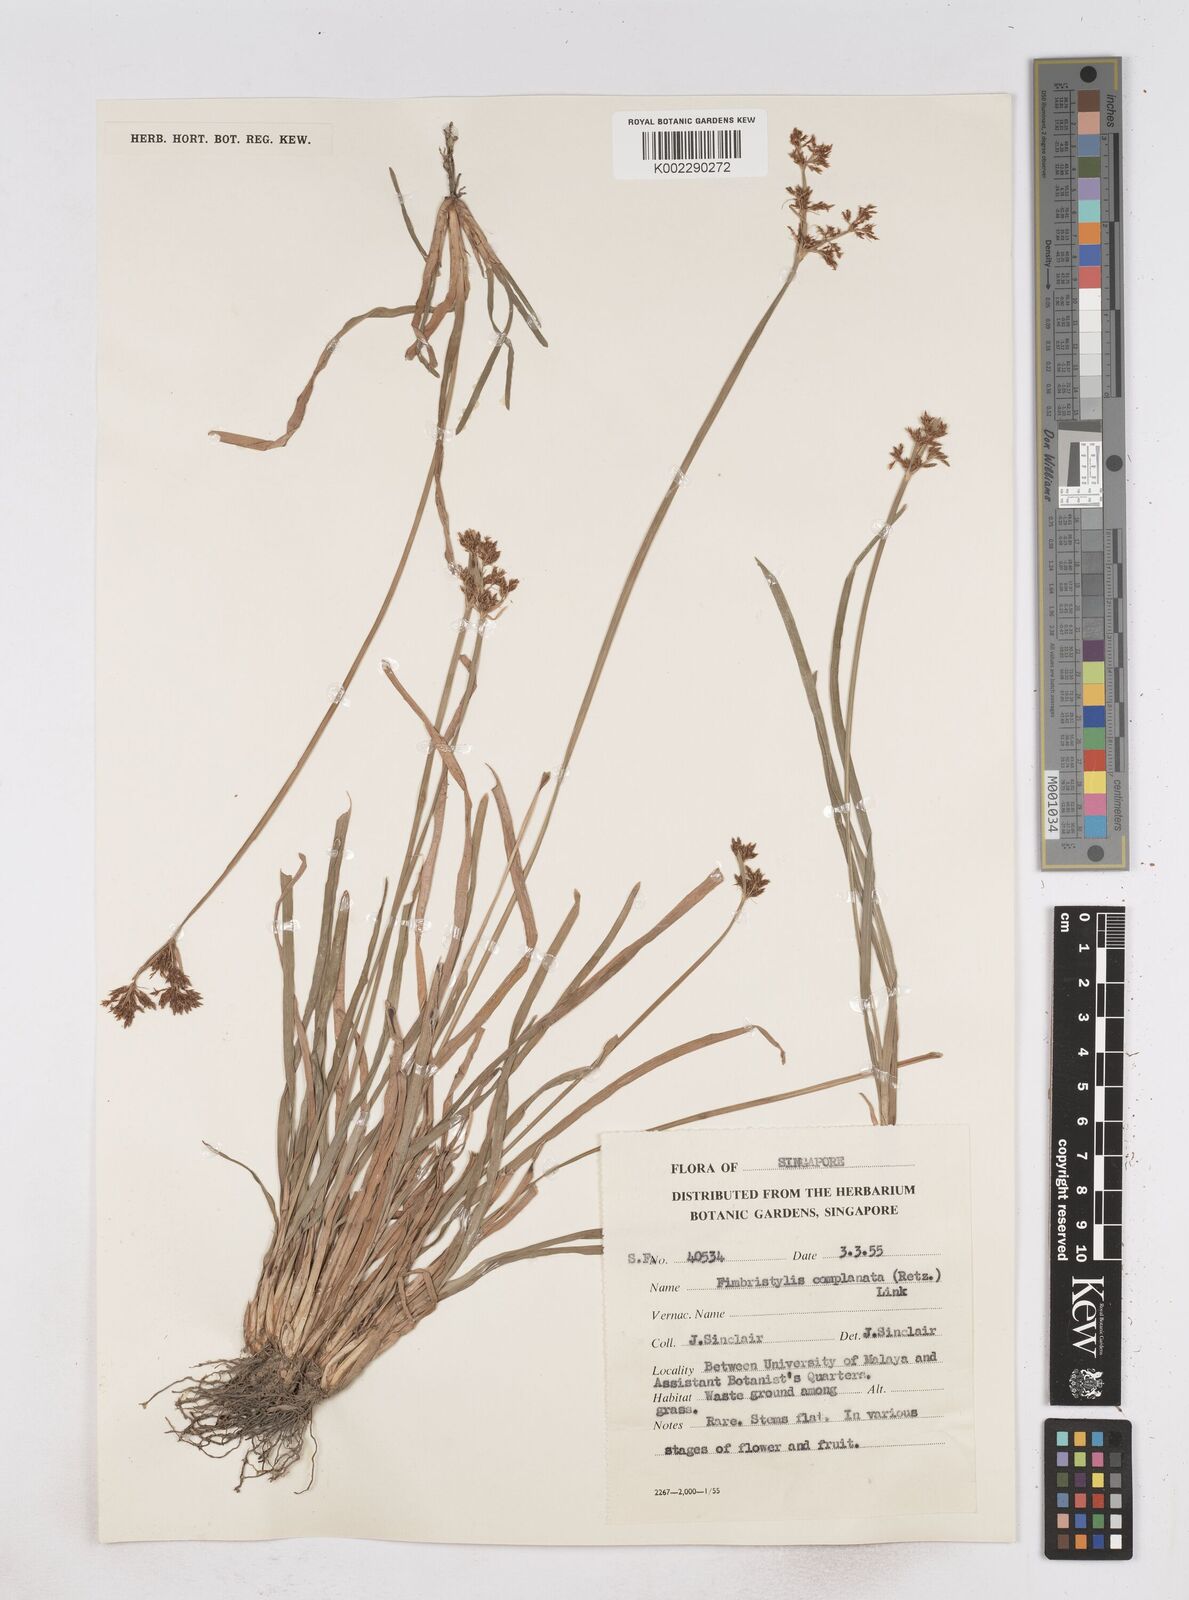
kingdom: Plantae
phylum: Tracheophyta
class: Liliopsida
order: Poales
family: Cyperaceae
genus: Fimbristylis
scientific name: Fimbristylis complanata
